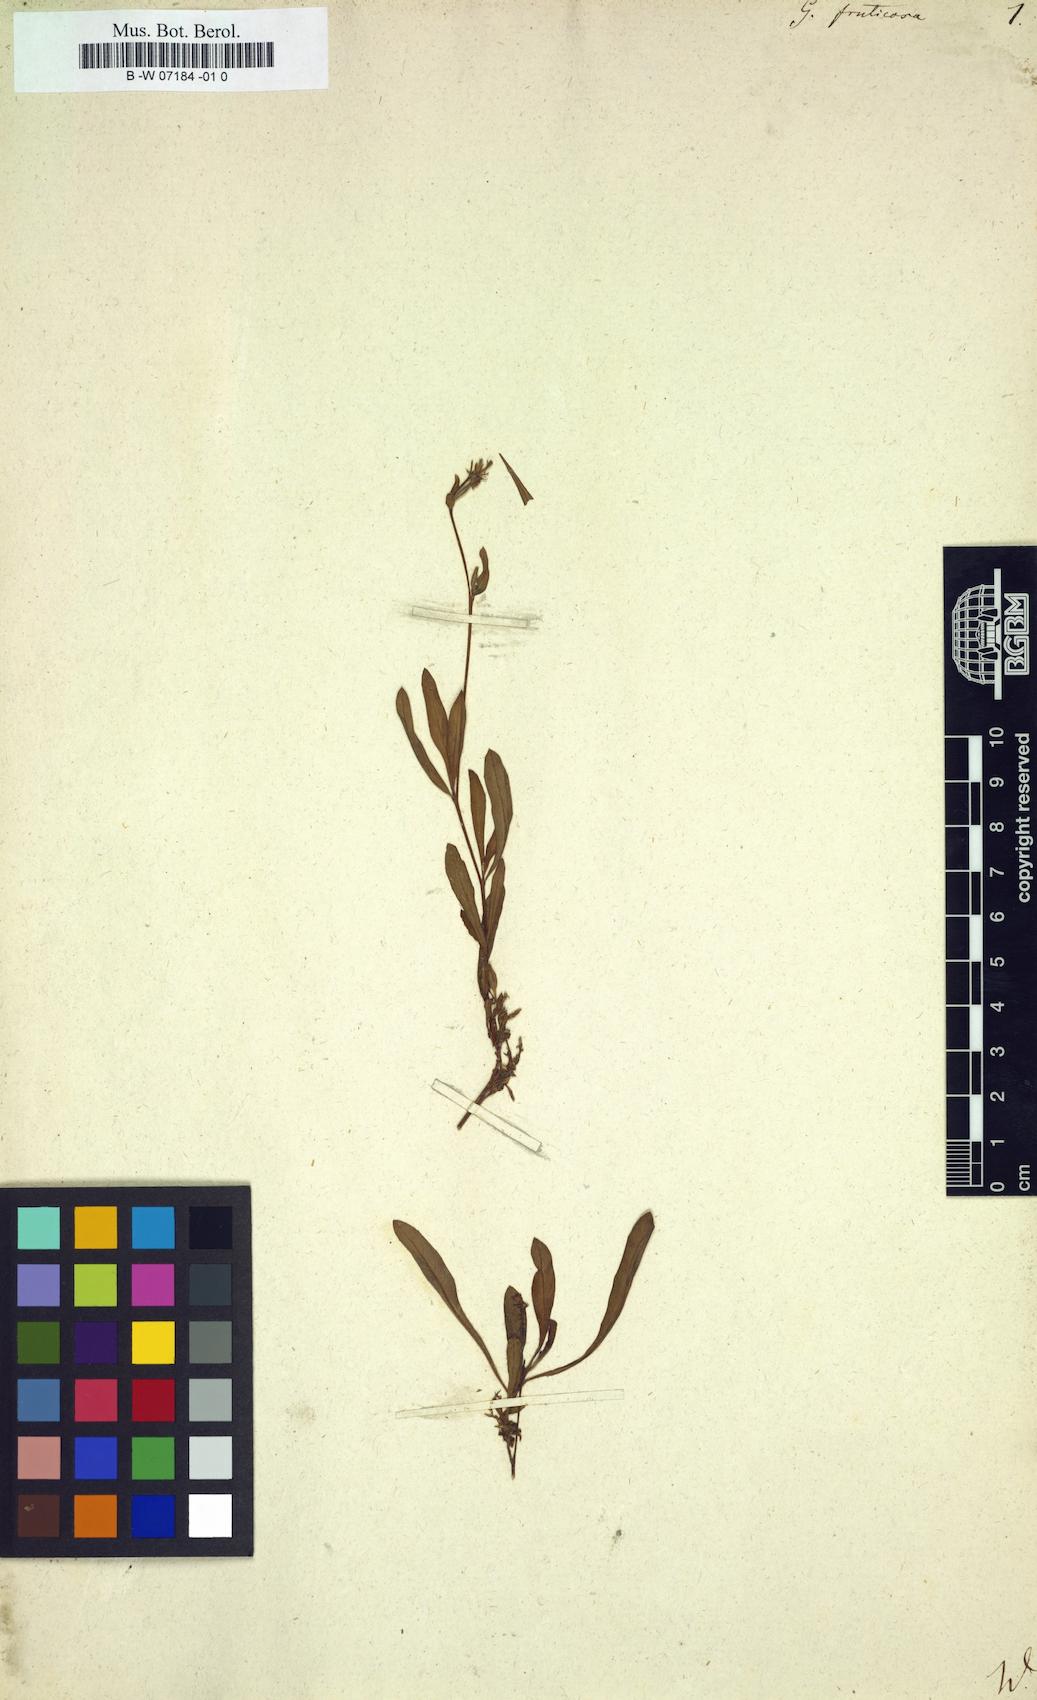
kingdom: Plantae
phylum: Tracheophyta
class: Magnoliopsida
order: Myrtales
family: Onagraceae
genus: Oenothera
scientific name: Oenothera simulans
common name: Southern beeblossom
